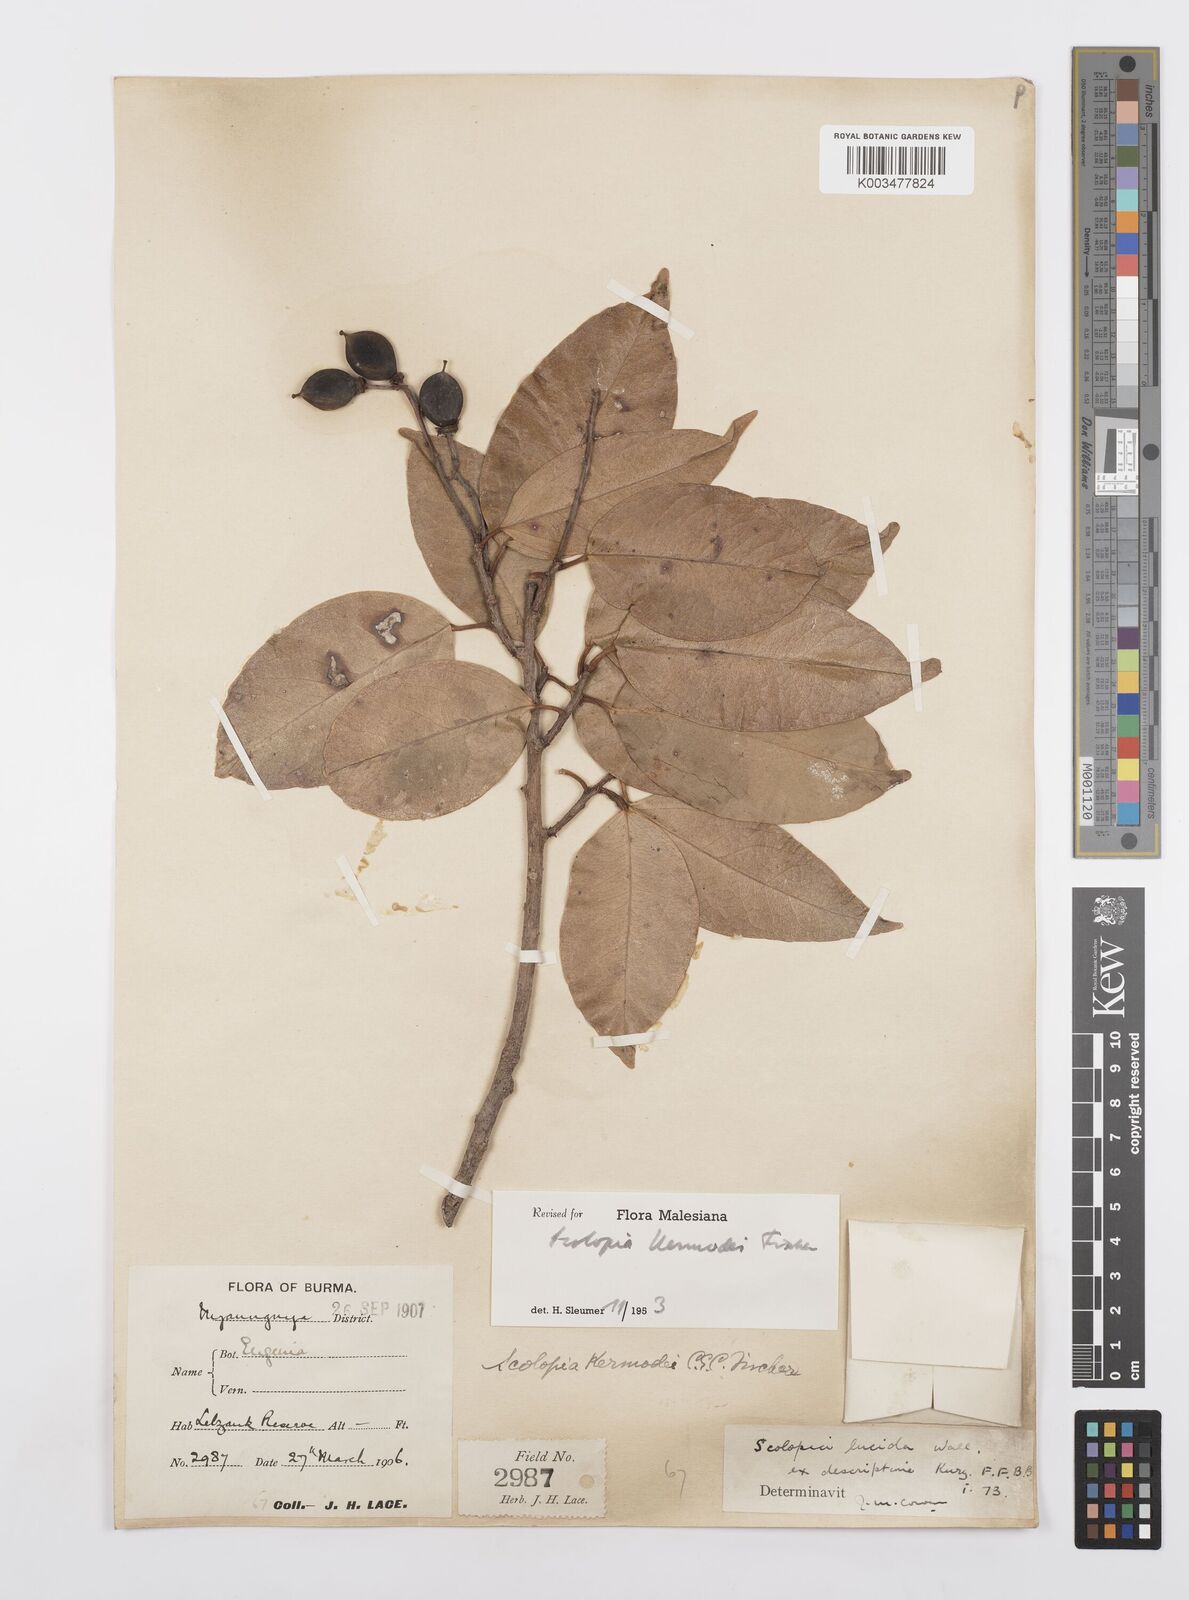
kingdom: Plantae
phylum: Tracheophyta
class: Magnoliopsida
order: Malpighiales
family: Salicaceae
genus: Scolopia
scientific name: Scolopia kermodei
